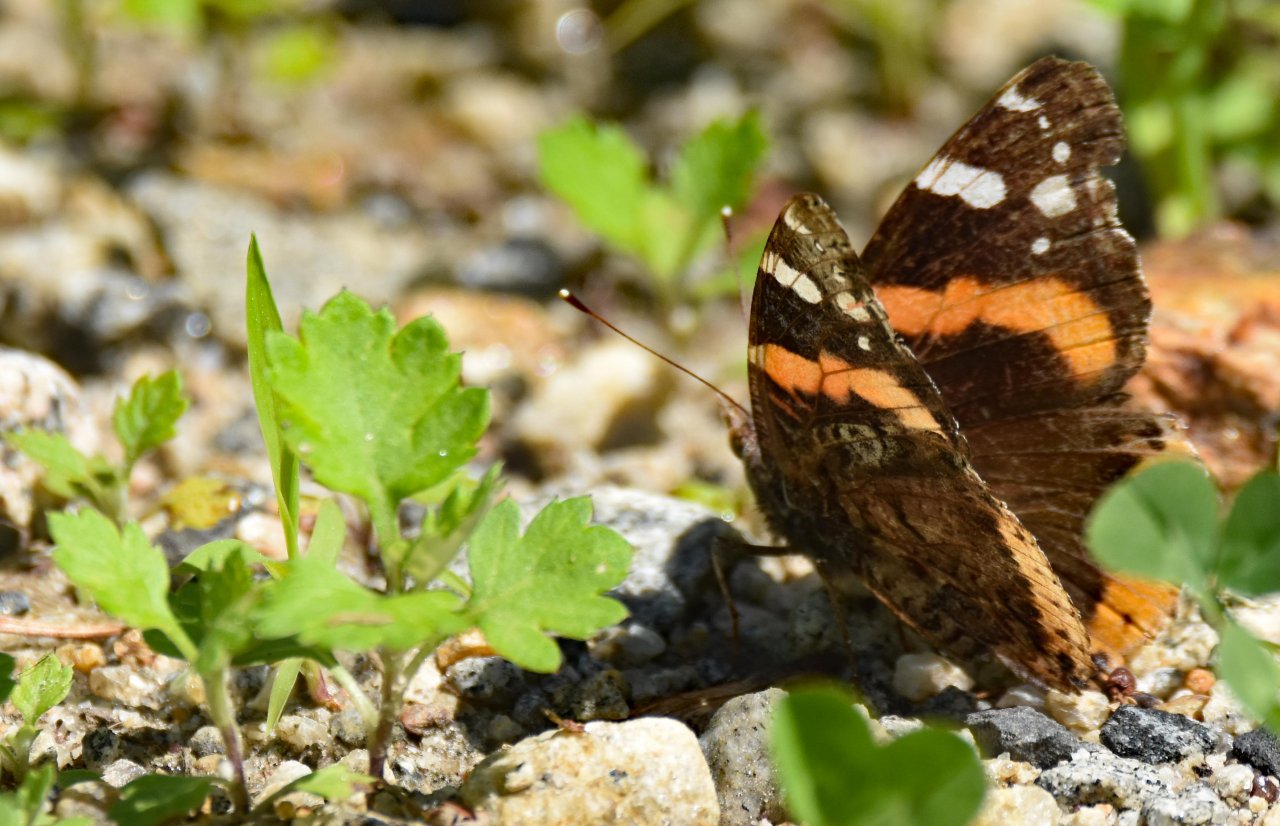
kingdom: Animalia
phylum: Arthropoda
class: Insecta
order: Lepidoptera
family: Nymphalidae
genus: Vanessa
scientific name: Vanessa atalanta
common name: Red Admiral
